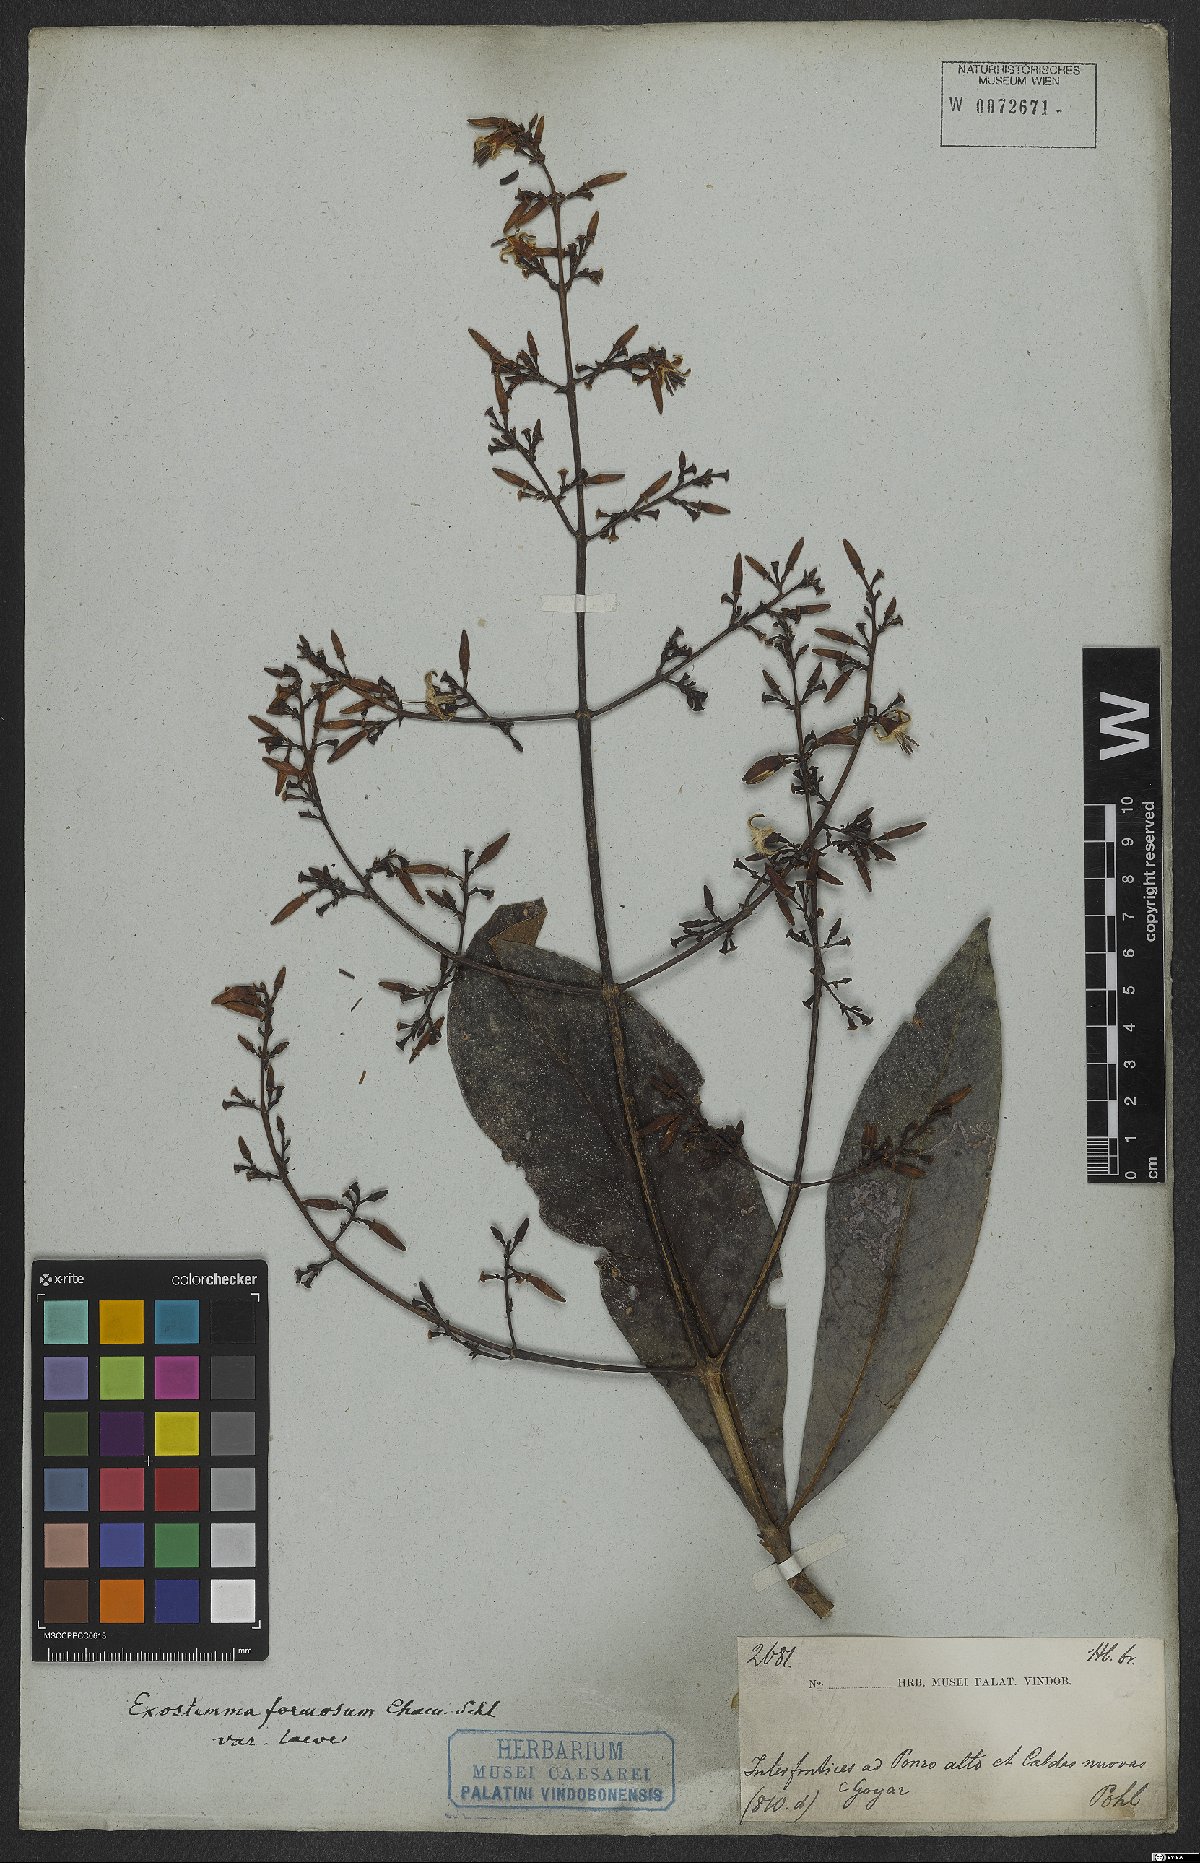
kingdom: Plantae
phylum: Tracheophyta
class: Magnoliopsida
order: Gentianales
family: Rubiaceae
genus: Rustia
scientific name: Rustia formosa
